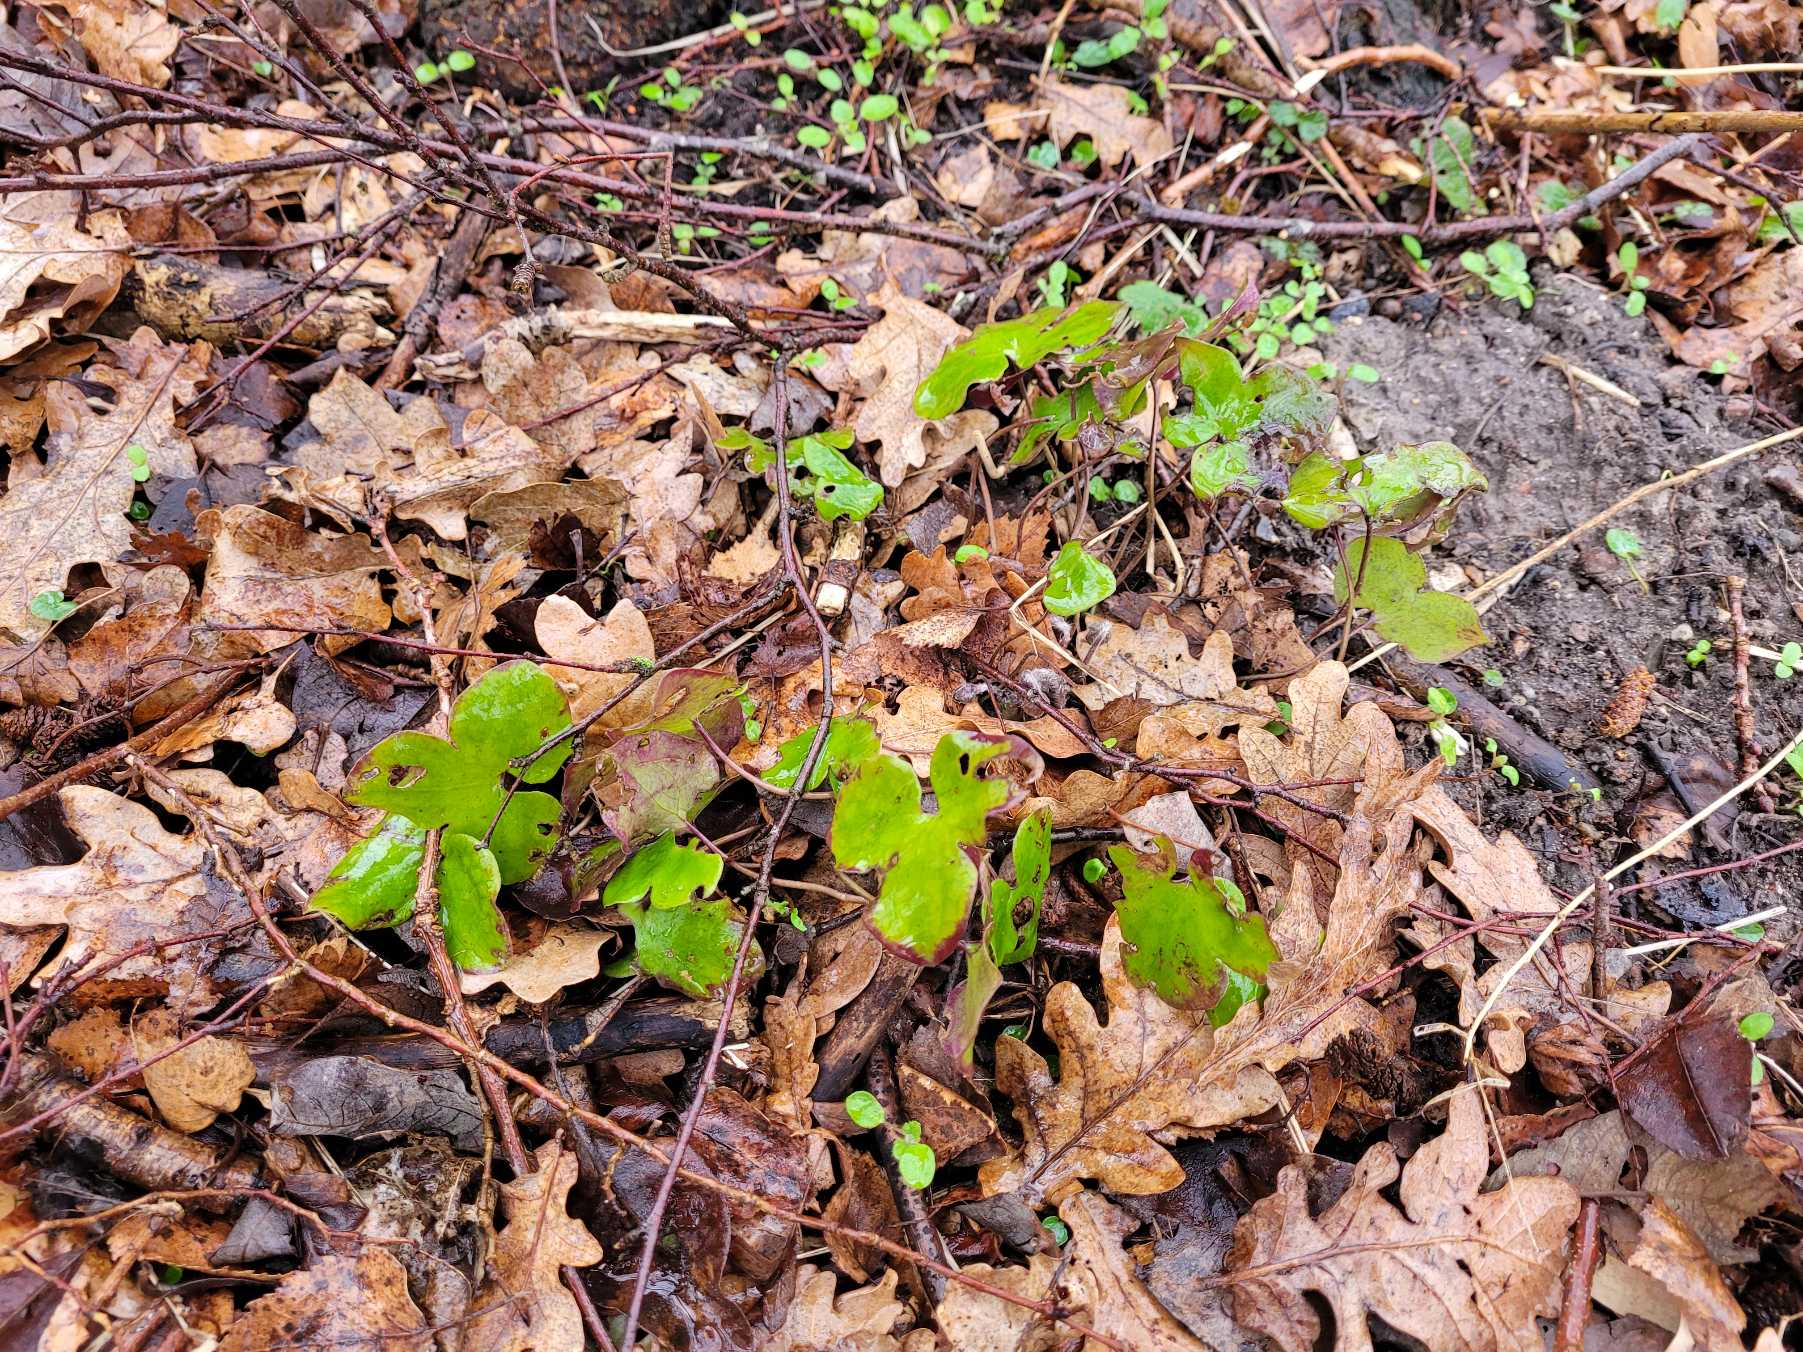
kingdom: Plantae
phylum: Tracheophyta
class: Magnoliopsida
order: Ranunculales
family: Ranunculaceae
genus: Hepatica
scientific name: Hepatica nobilis
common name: Blå anemone
